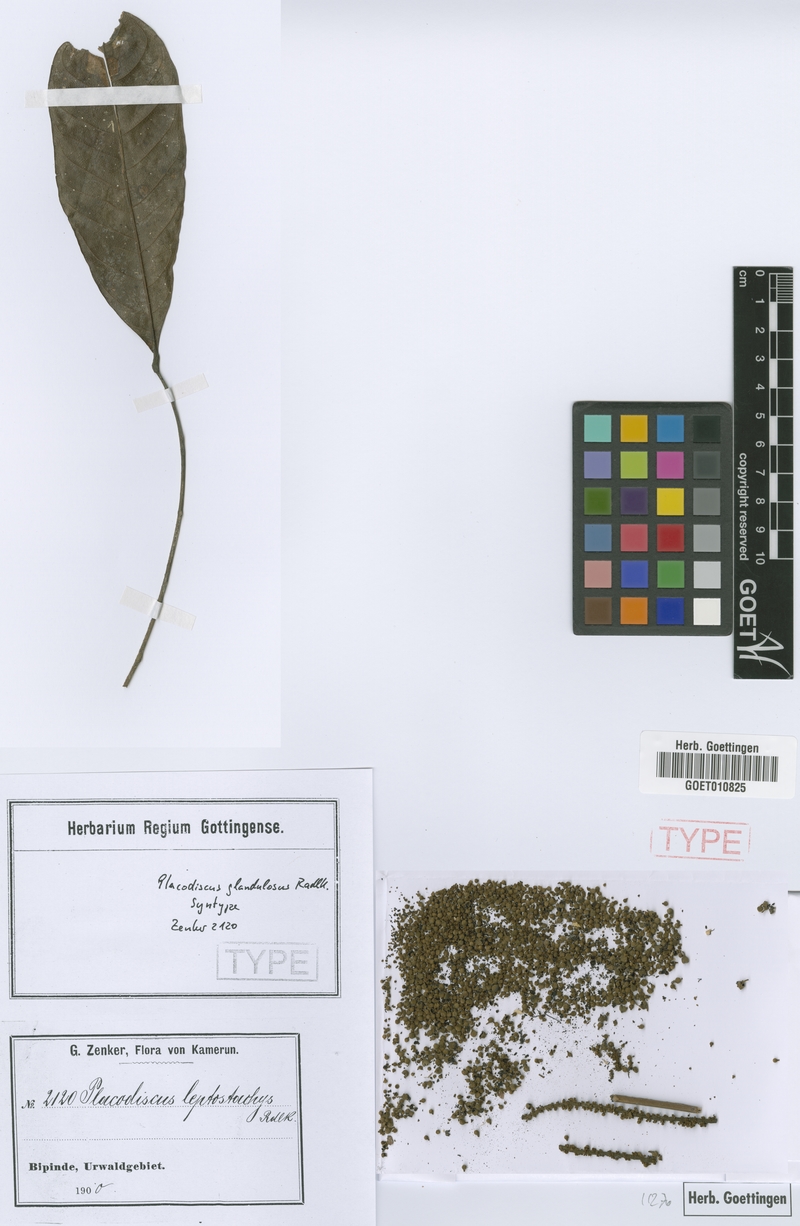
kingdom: Plantae
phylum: Tracheophyta
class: Magnoliopsida
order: Sapindales
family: Sapindaceae
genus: Placodiscus
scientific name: Placodiscus glandulosus
